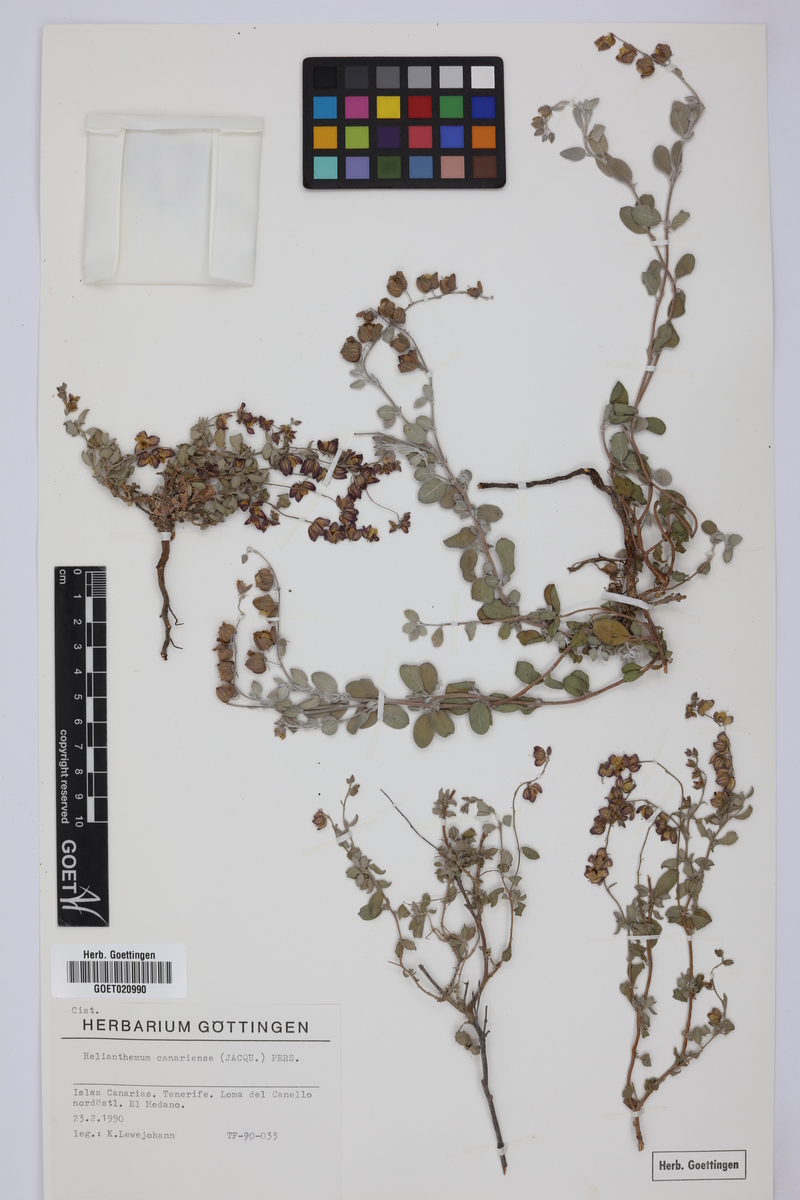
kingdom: Plantae
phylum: Tracheophyta
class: Magnoliopsida
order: Malvales
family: Cistaceae
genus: Helianthemum
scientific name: Helianthemum canariense
